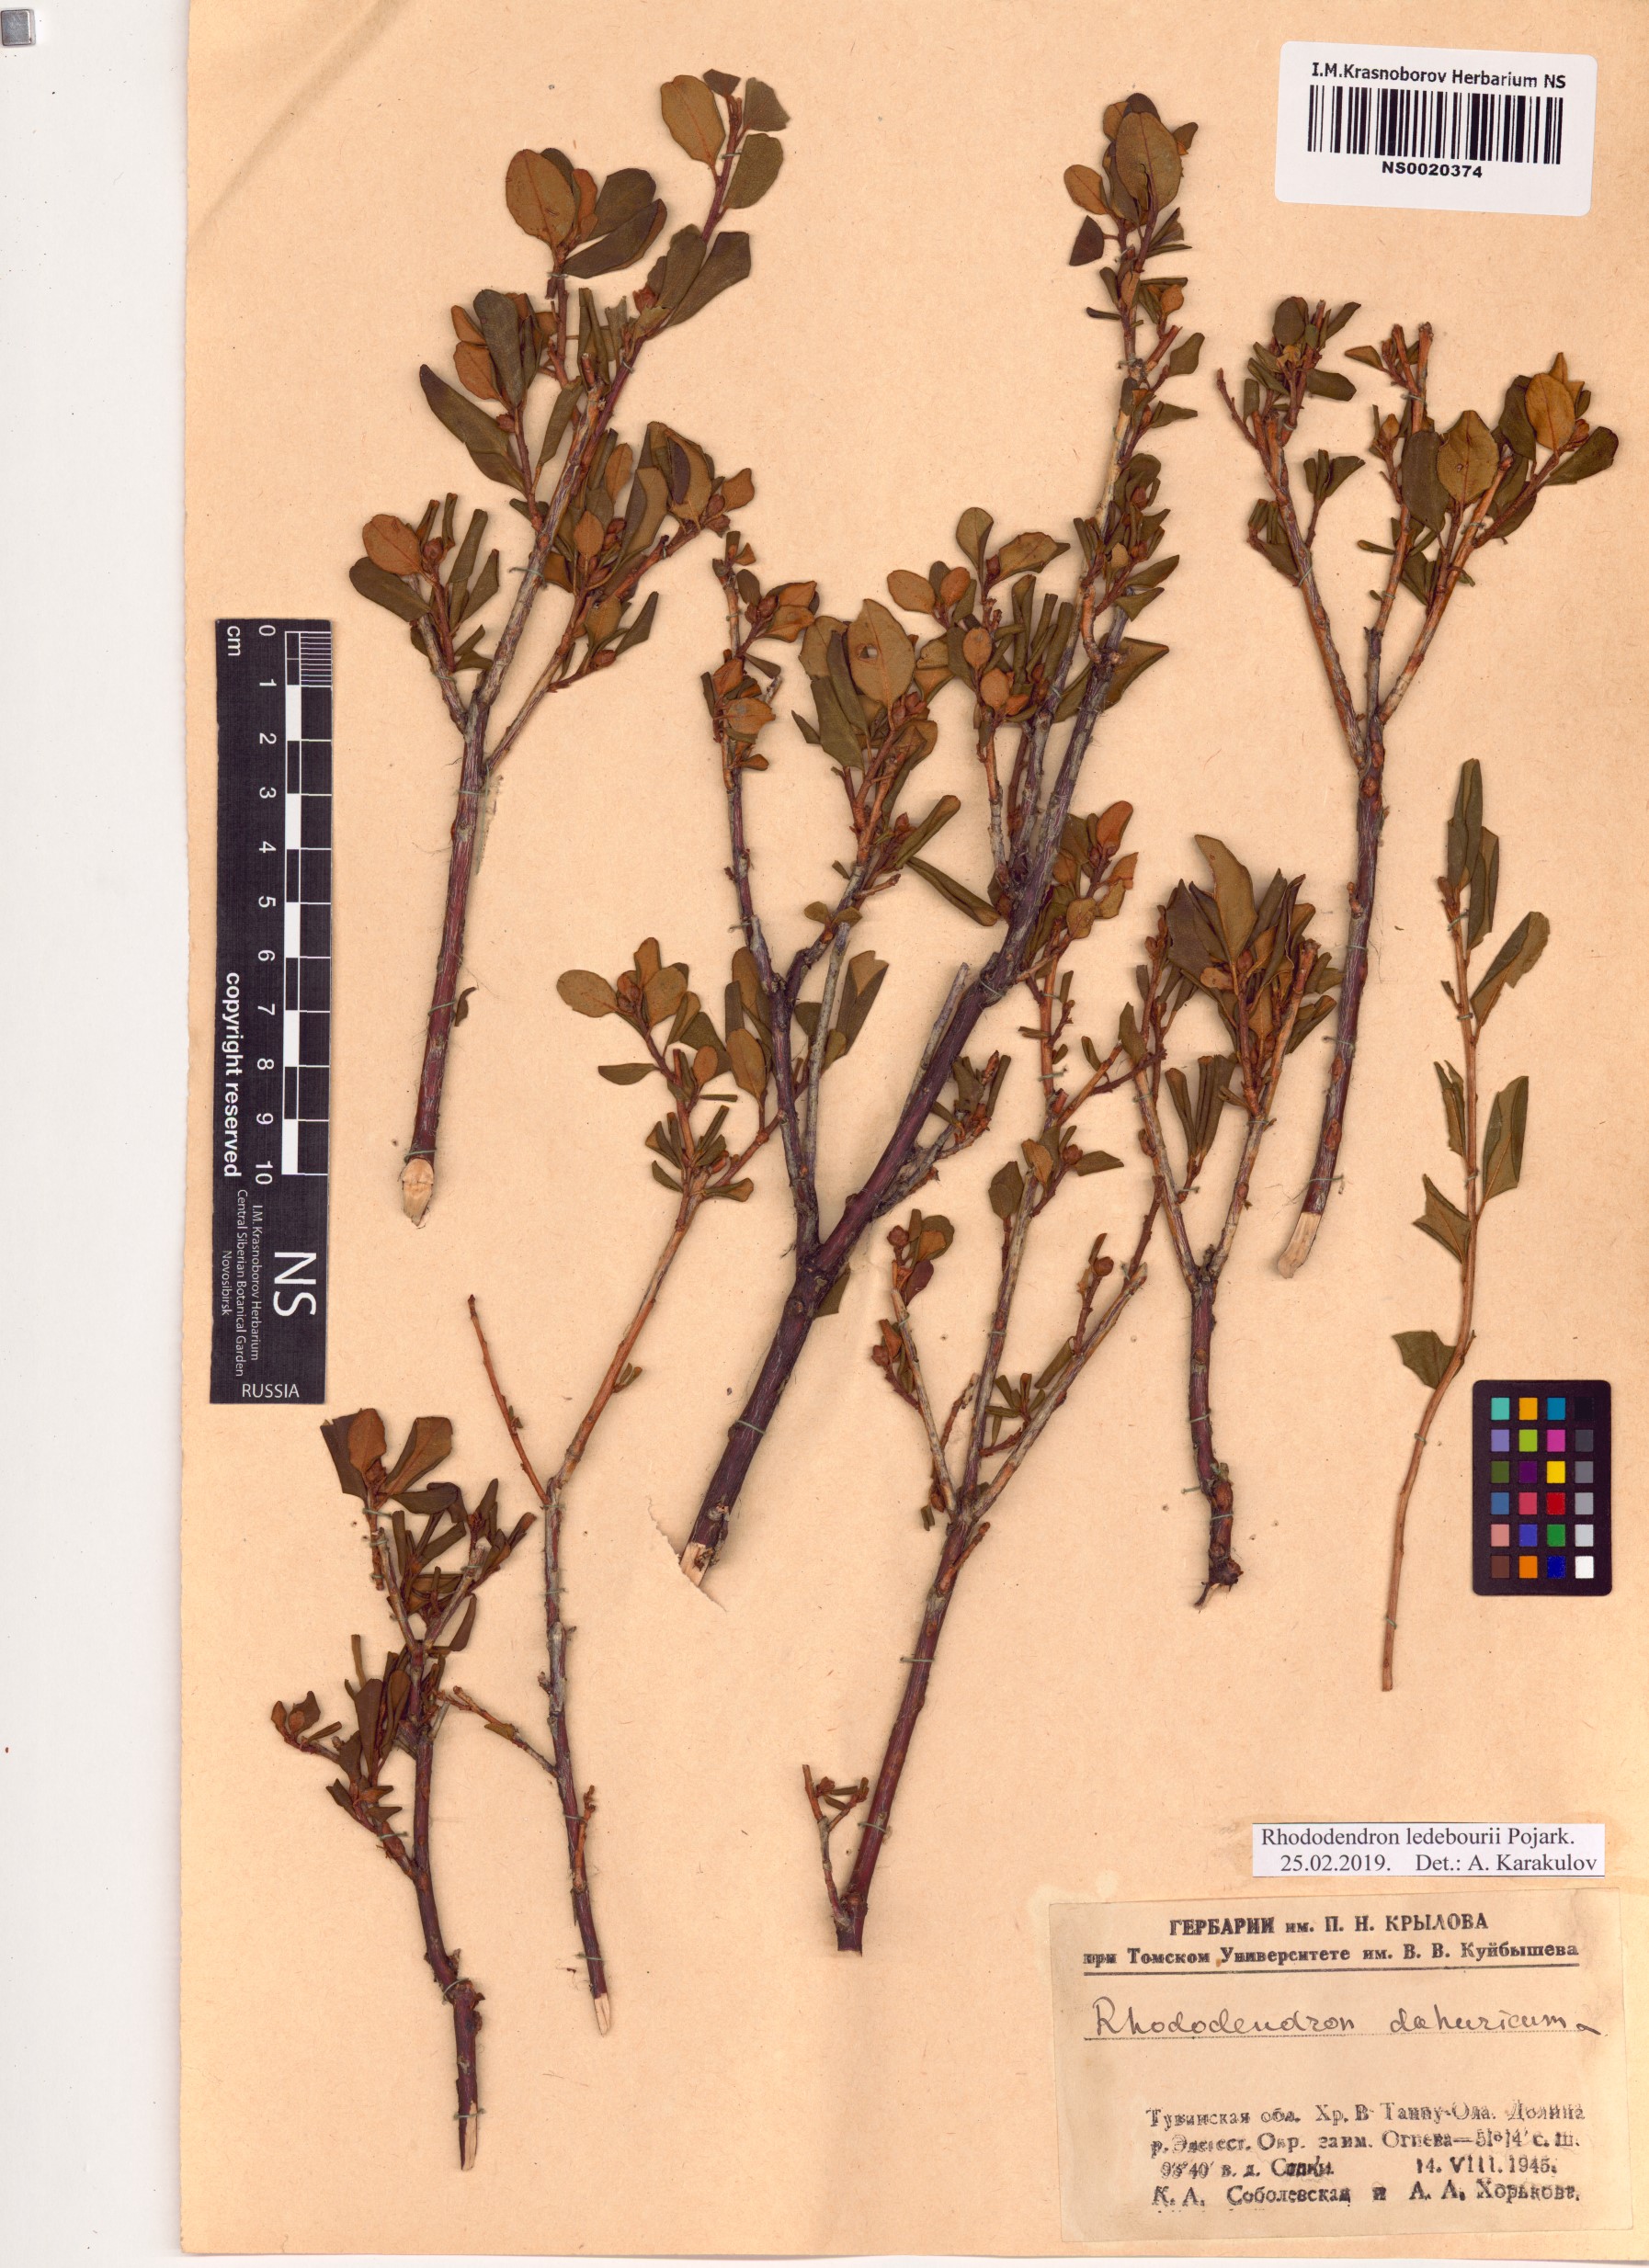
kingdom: Plantae
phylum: Tracheophyta
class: Magnoliopsida
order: Ericales
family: Ericaceae
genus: Rhododendron
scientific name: Rhododendron dauricum
